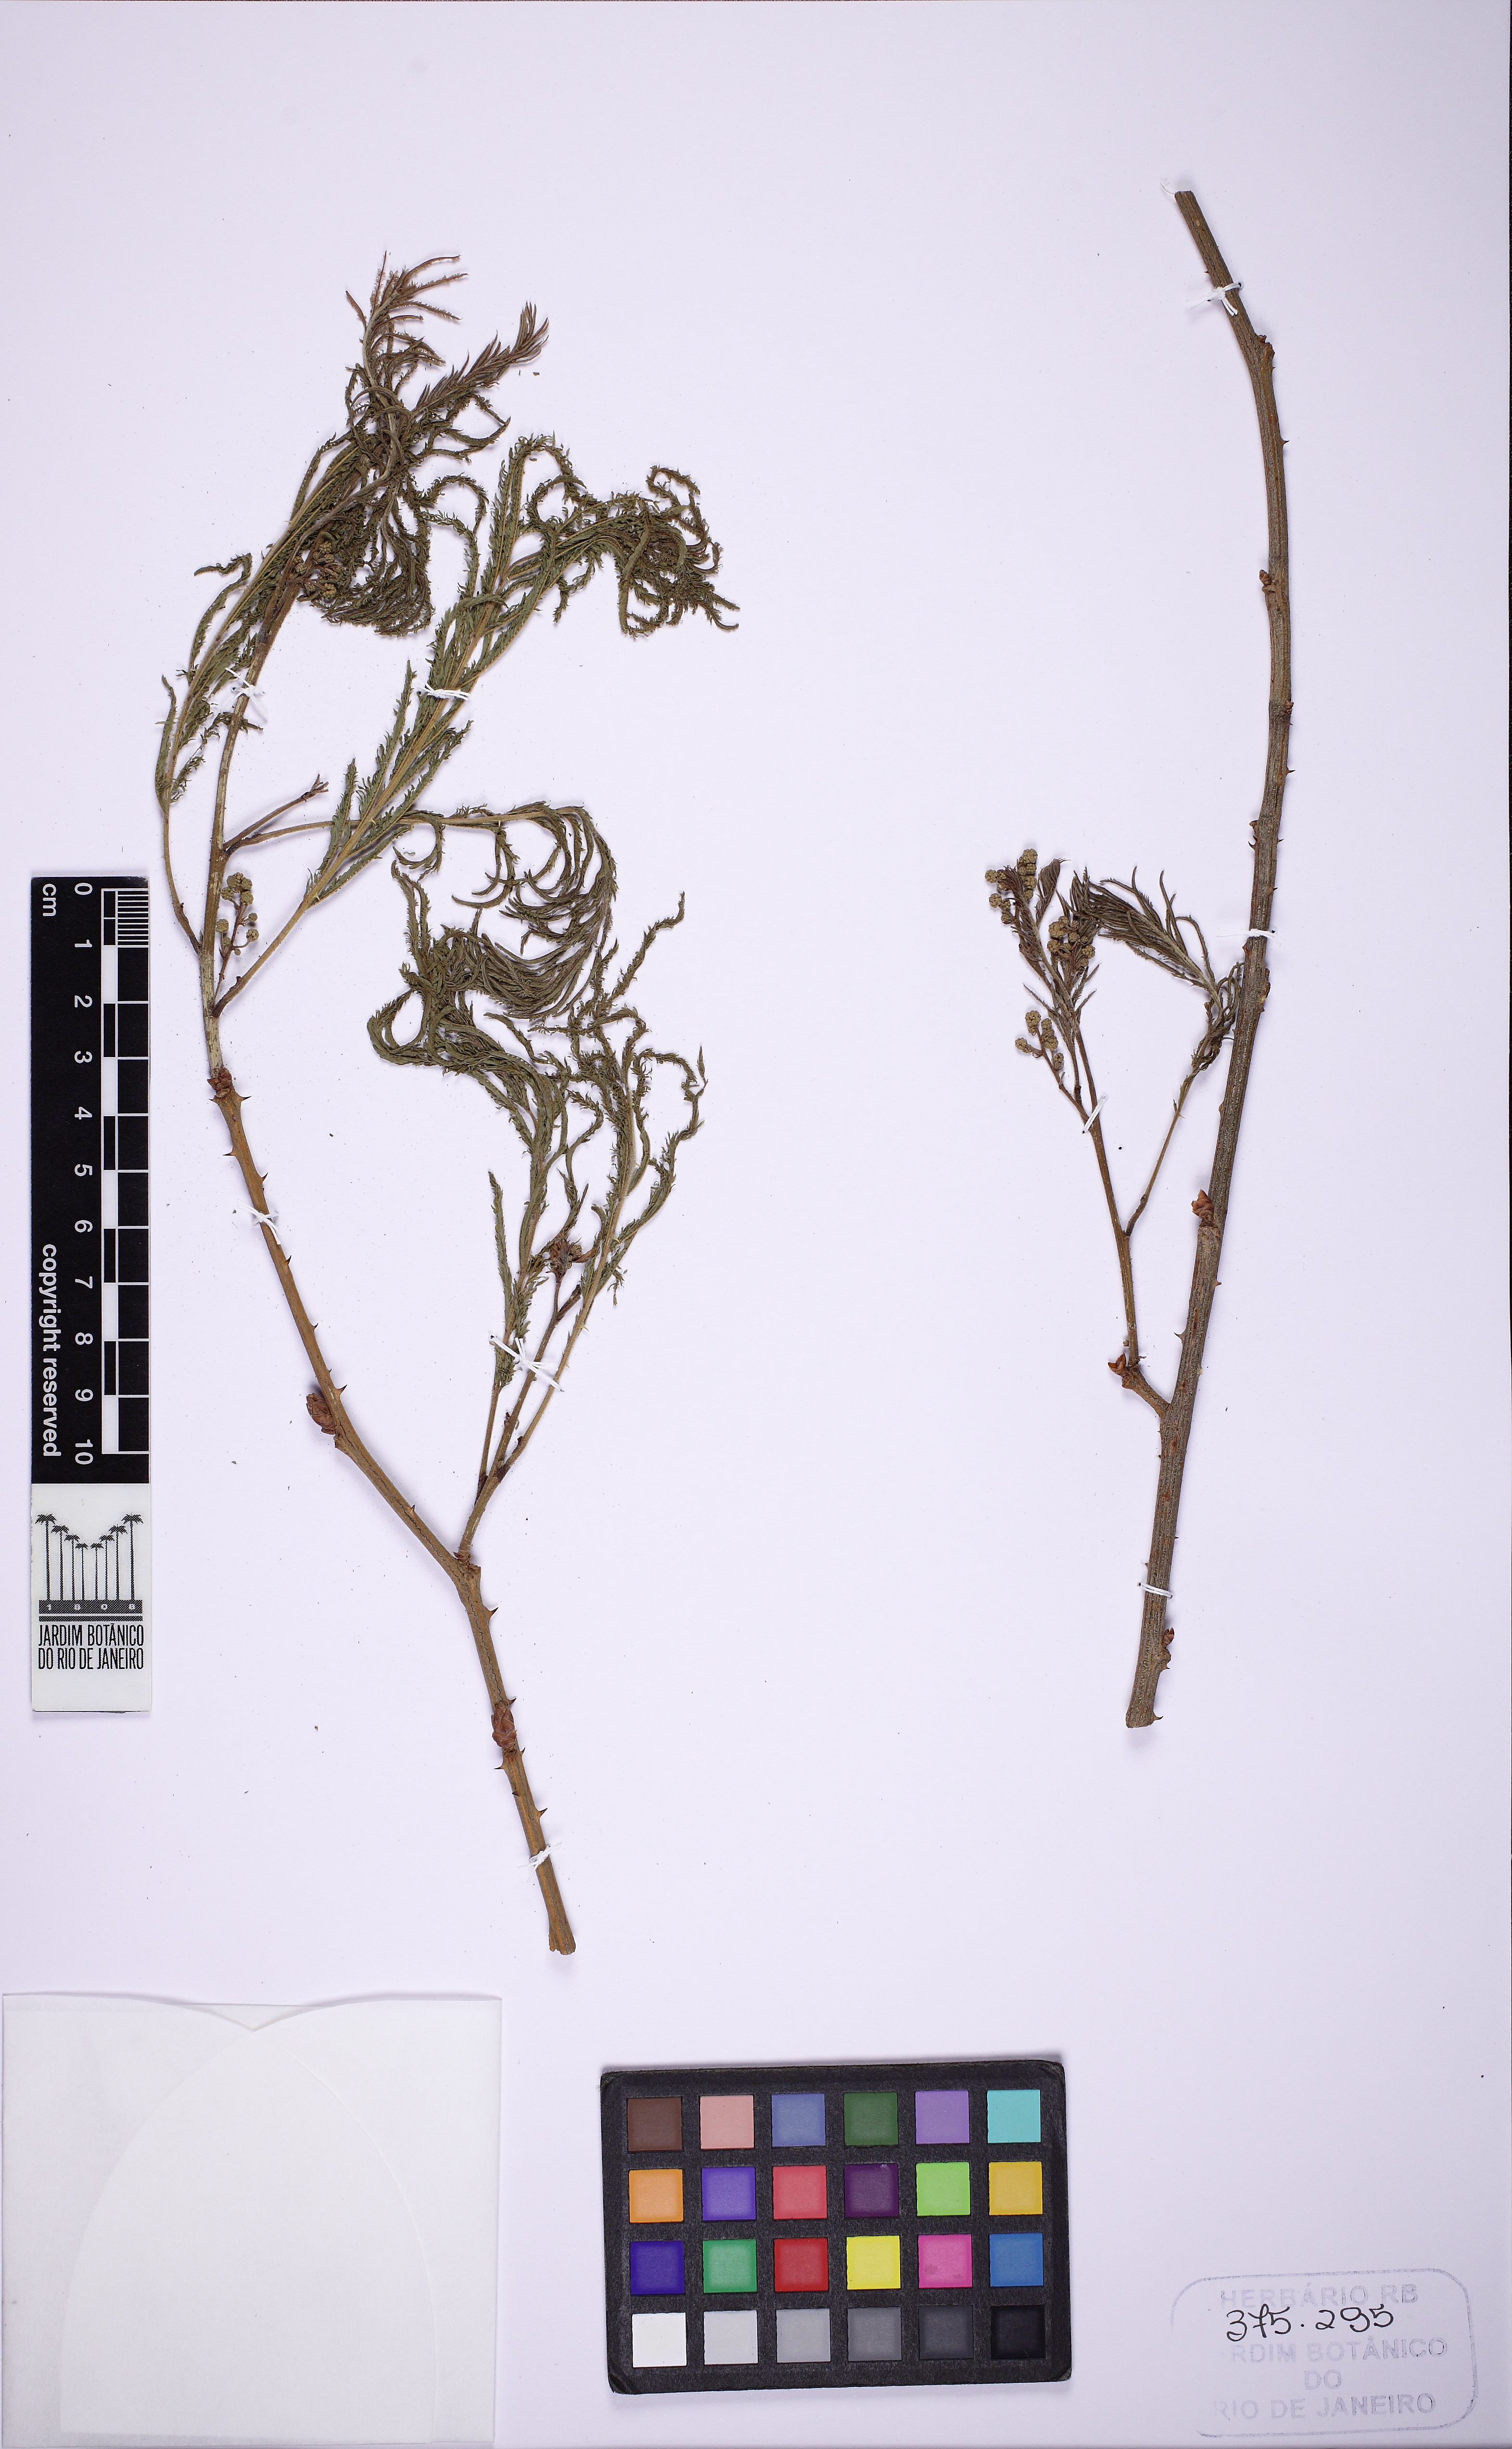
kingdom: Plantae
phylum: Tracheophyta
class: Magnoliopsida
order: Fabales
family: Fabaceae
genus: Senegalia
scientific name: Senegalia martii
